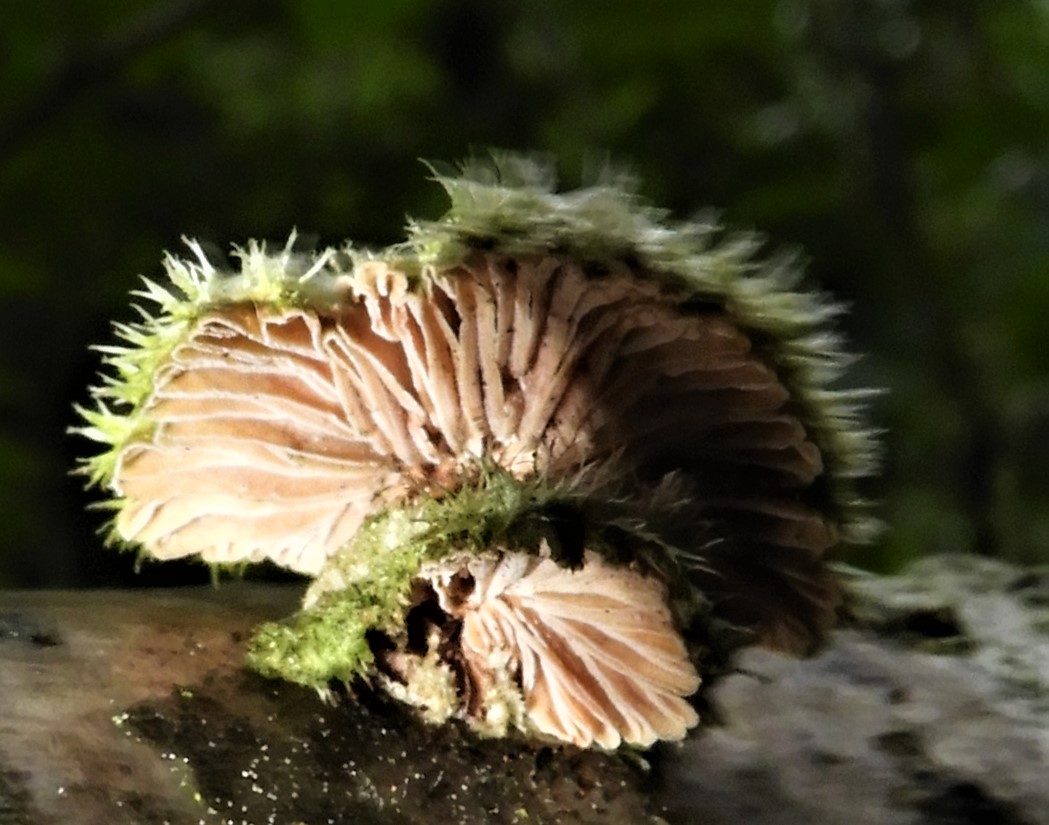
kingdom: Fungi
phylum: Basidiomycota
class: Agaricomycetes
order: Agaricales
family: Schizophyllaceae
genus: Schizophyllum
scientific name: Schizophyllum commune
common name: kløvblad
